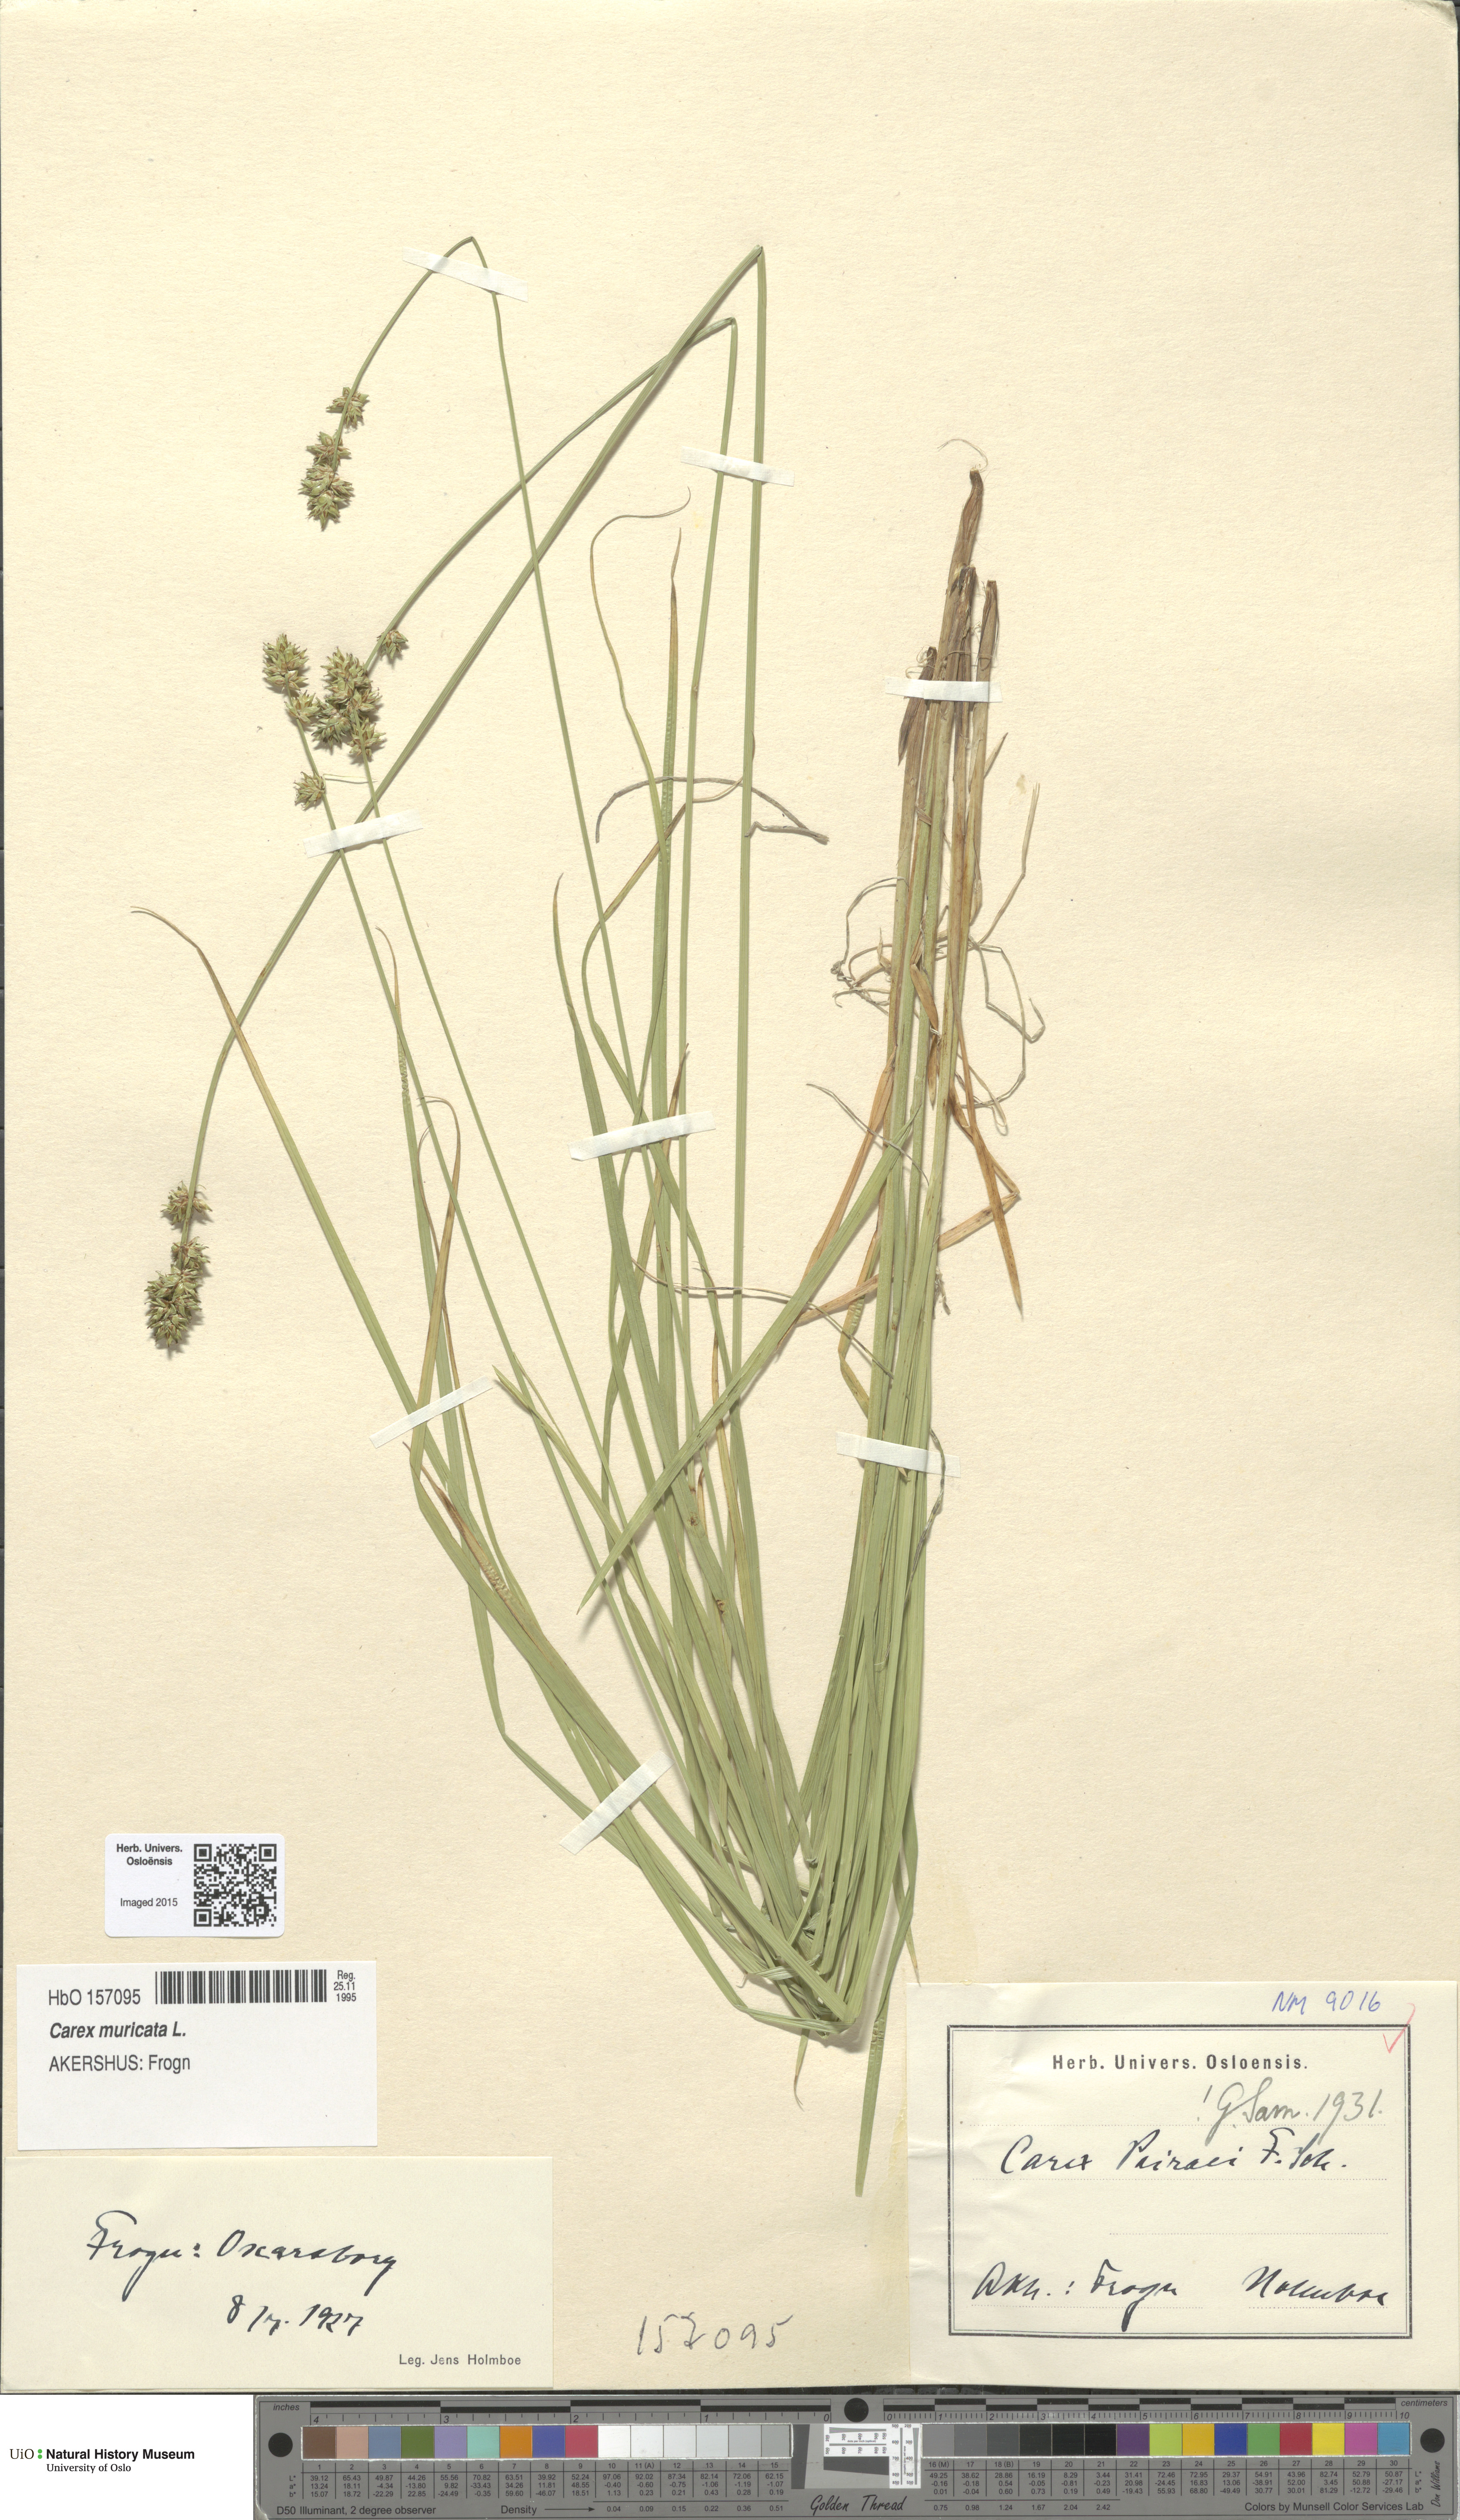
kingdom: Plantae
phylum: Tracheophyta
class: Liliopsida
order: Poales
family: Cyperaceae
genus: Carex
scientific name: Carex pairae
